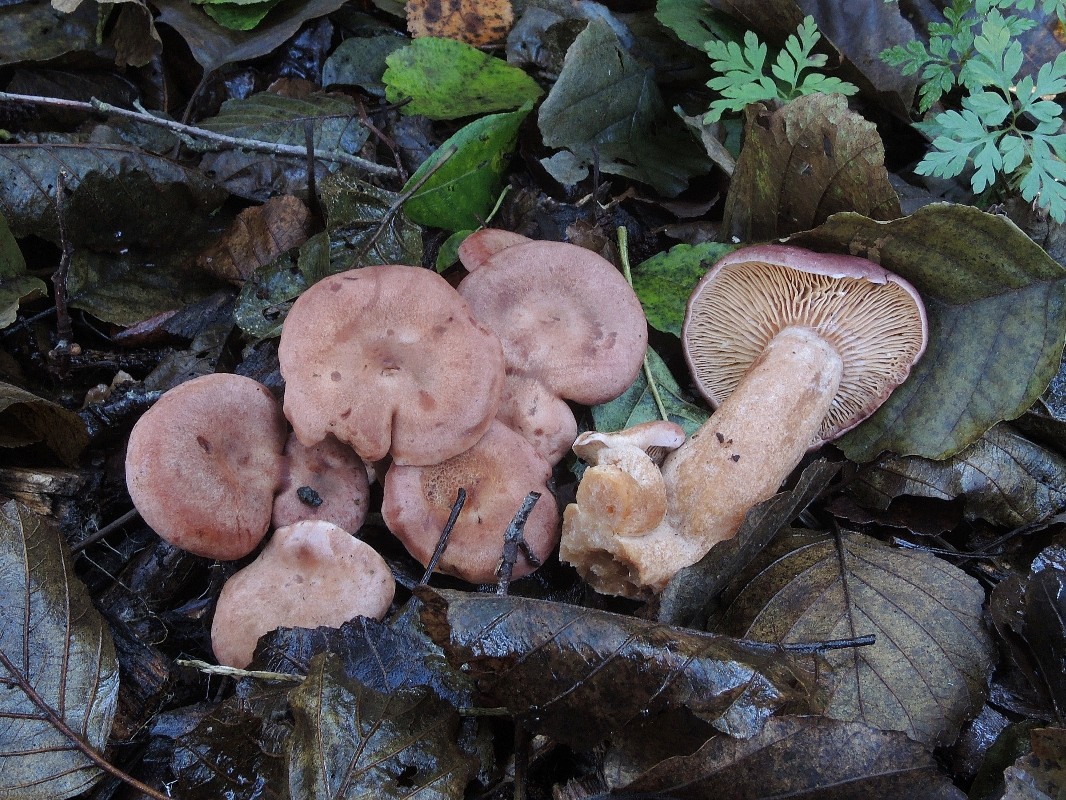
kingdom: Fungi
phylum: Basidiomycota
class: Agaricomycetes
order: Russulales
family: Russulaceae
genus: Lactarius
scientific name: Lactarius lilacinus
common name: lilla mælkehat
